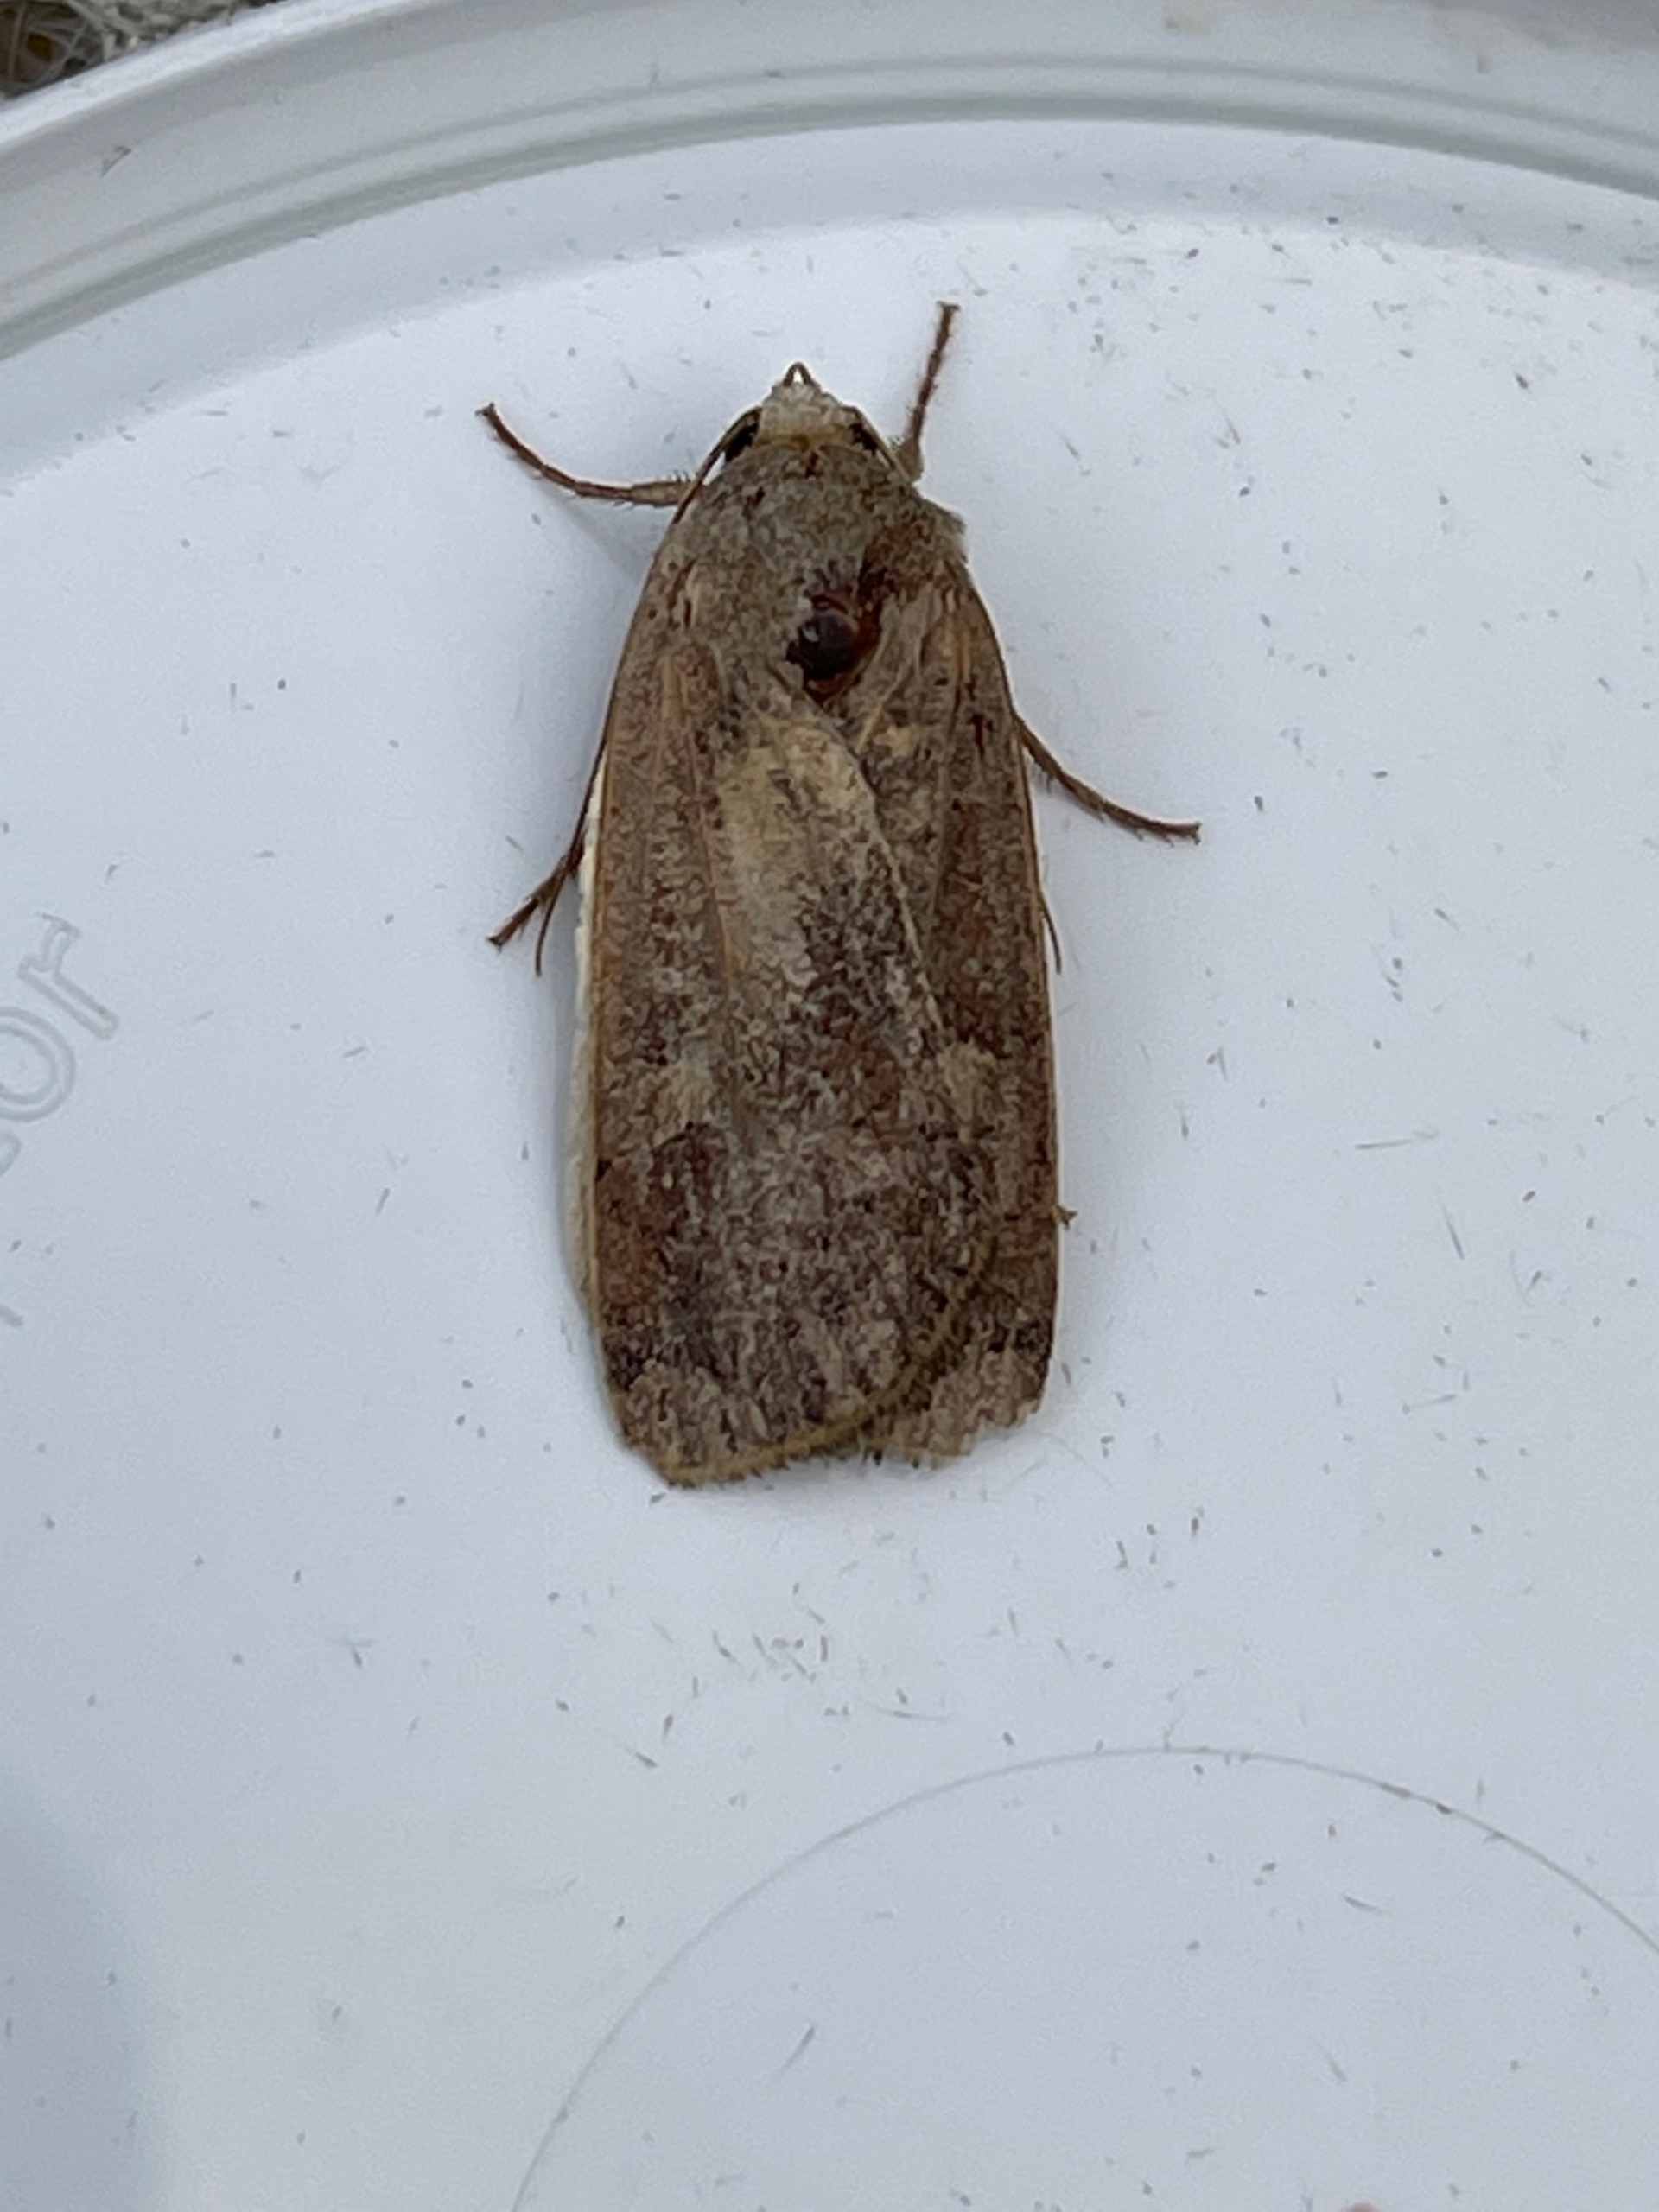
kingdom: Animalia
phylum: Arthropoda
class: Insecta
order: Lepidoptera
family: Noctuidae
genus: Noctua
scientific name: Noctua pronuba
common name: Stor smutugle
